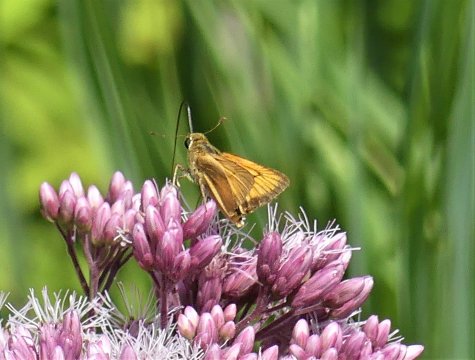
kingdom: Animalia
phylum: Arthropoda
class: Insecta
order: Lepidoptera
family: Hesperiidae
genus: Atrytone
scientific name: Atrytone delaware
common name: Delaware Skipper
